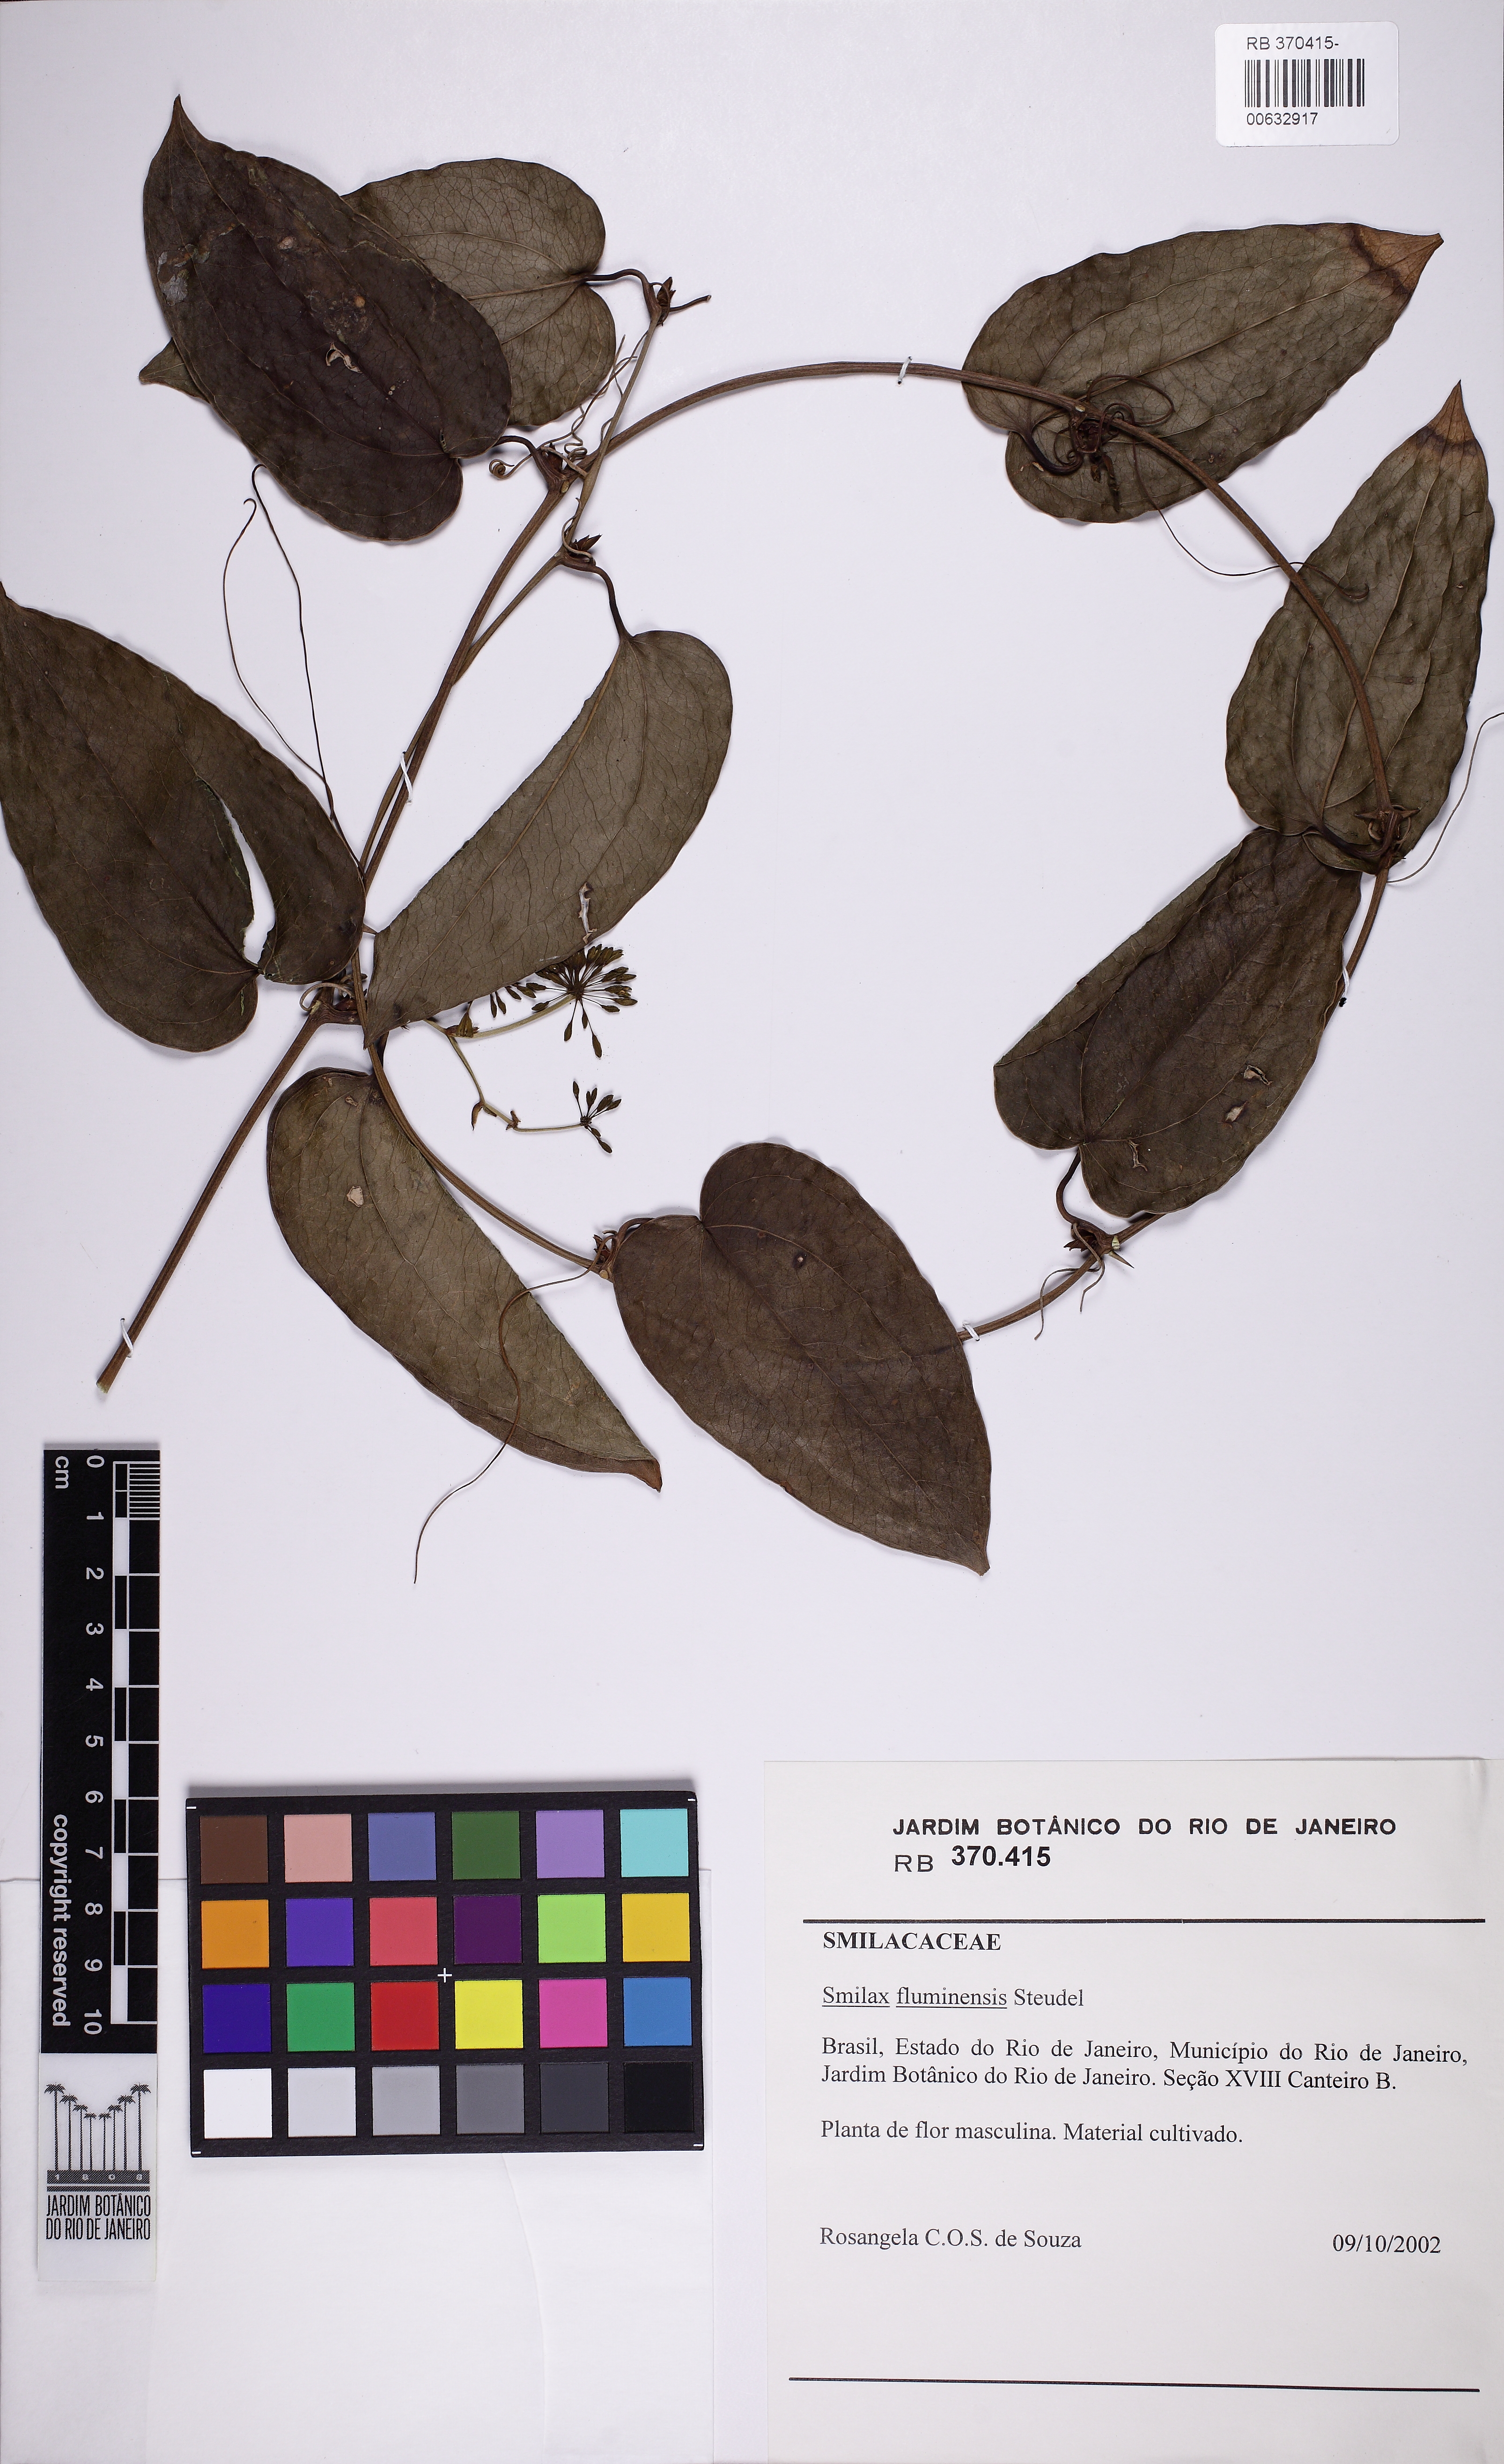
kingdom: Plantae
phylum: Tracheophyta
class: Liliopsida
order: Liliales
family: Smilacaceae
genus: Smilax
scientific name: Smilax fluminensis
